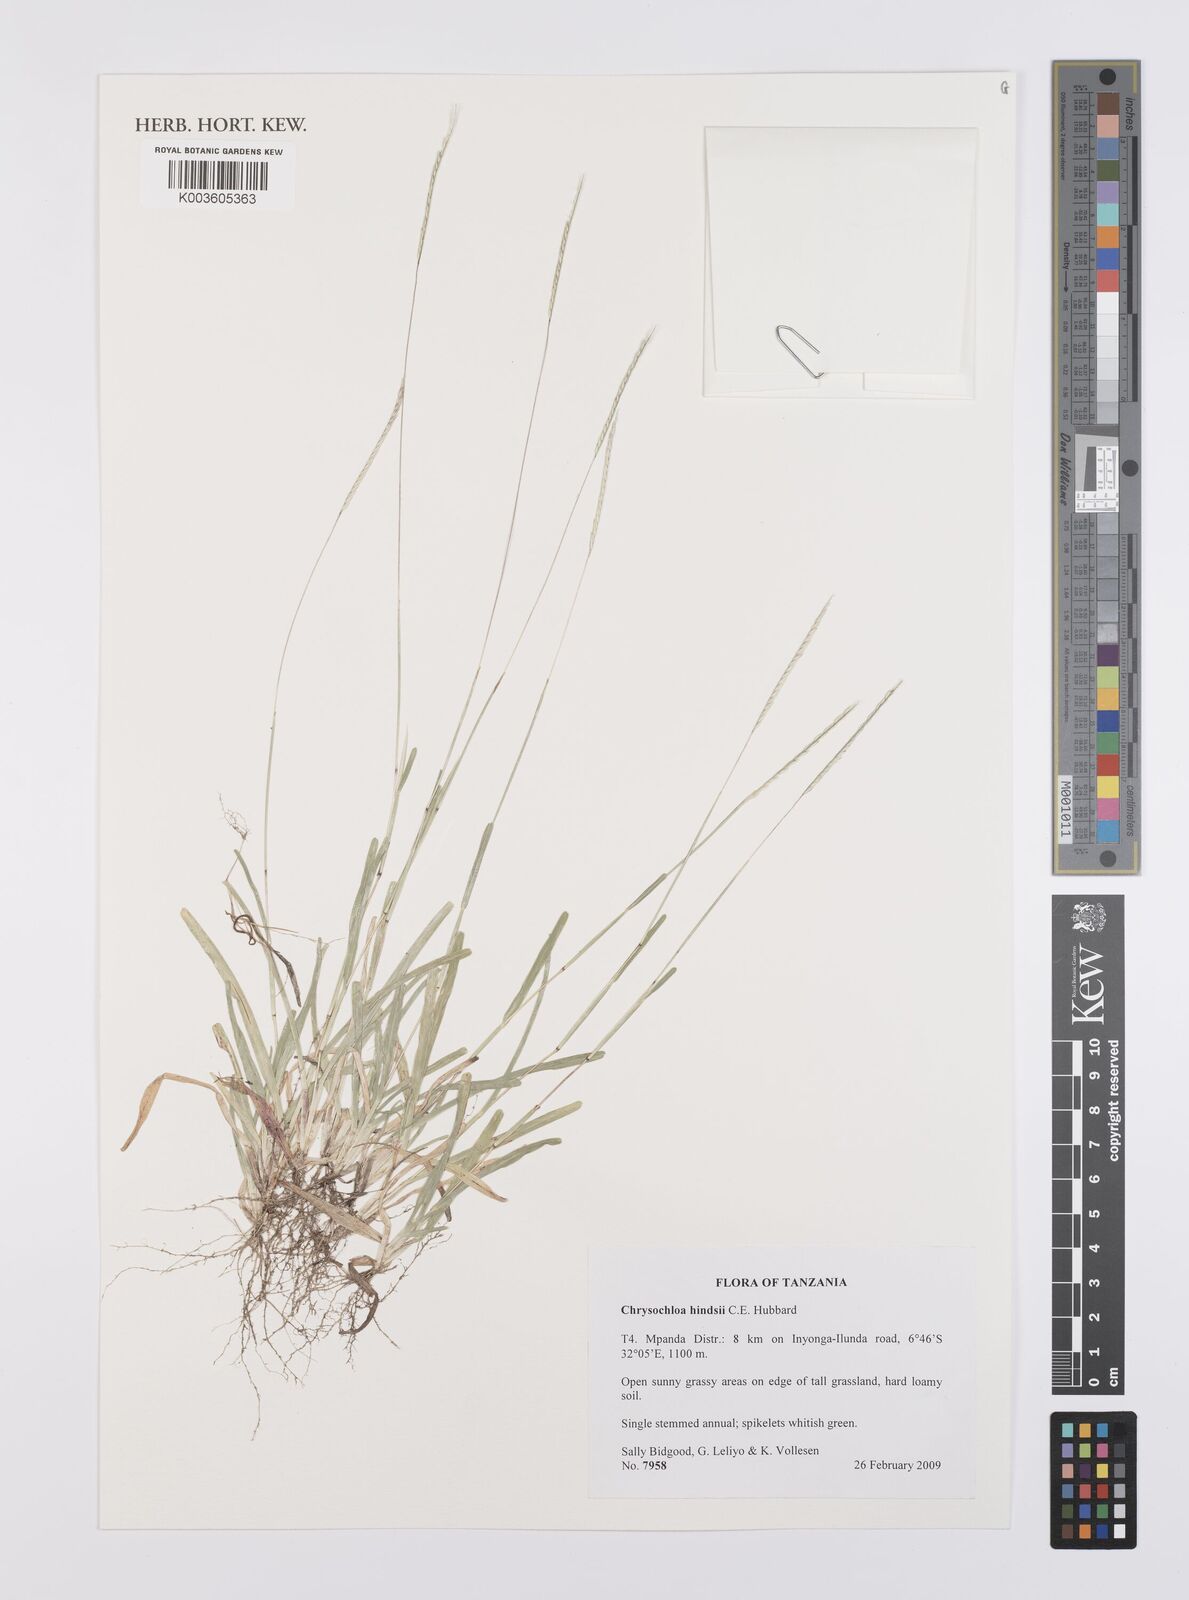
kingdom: Plantae
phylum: Tracheophyta
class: Liliopsida
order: Poales
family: Poaceae
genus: Chrysochloa
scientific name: Chrysochloa hindsii
